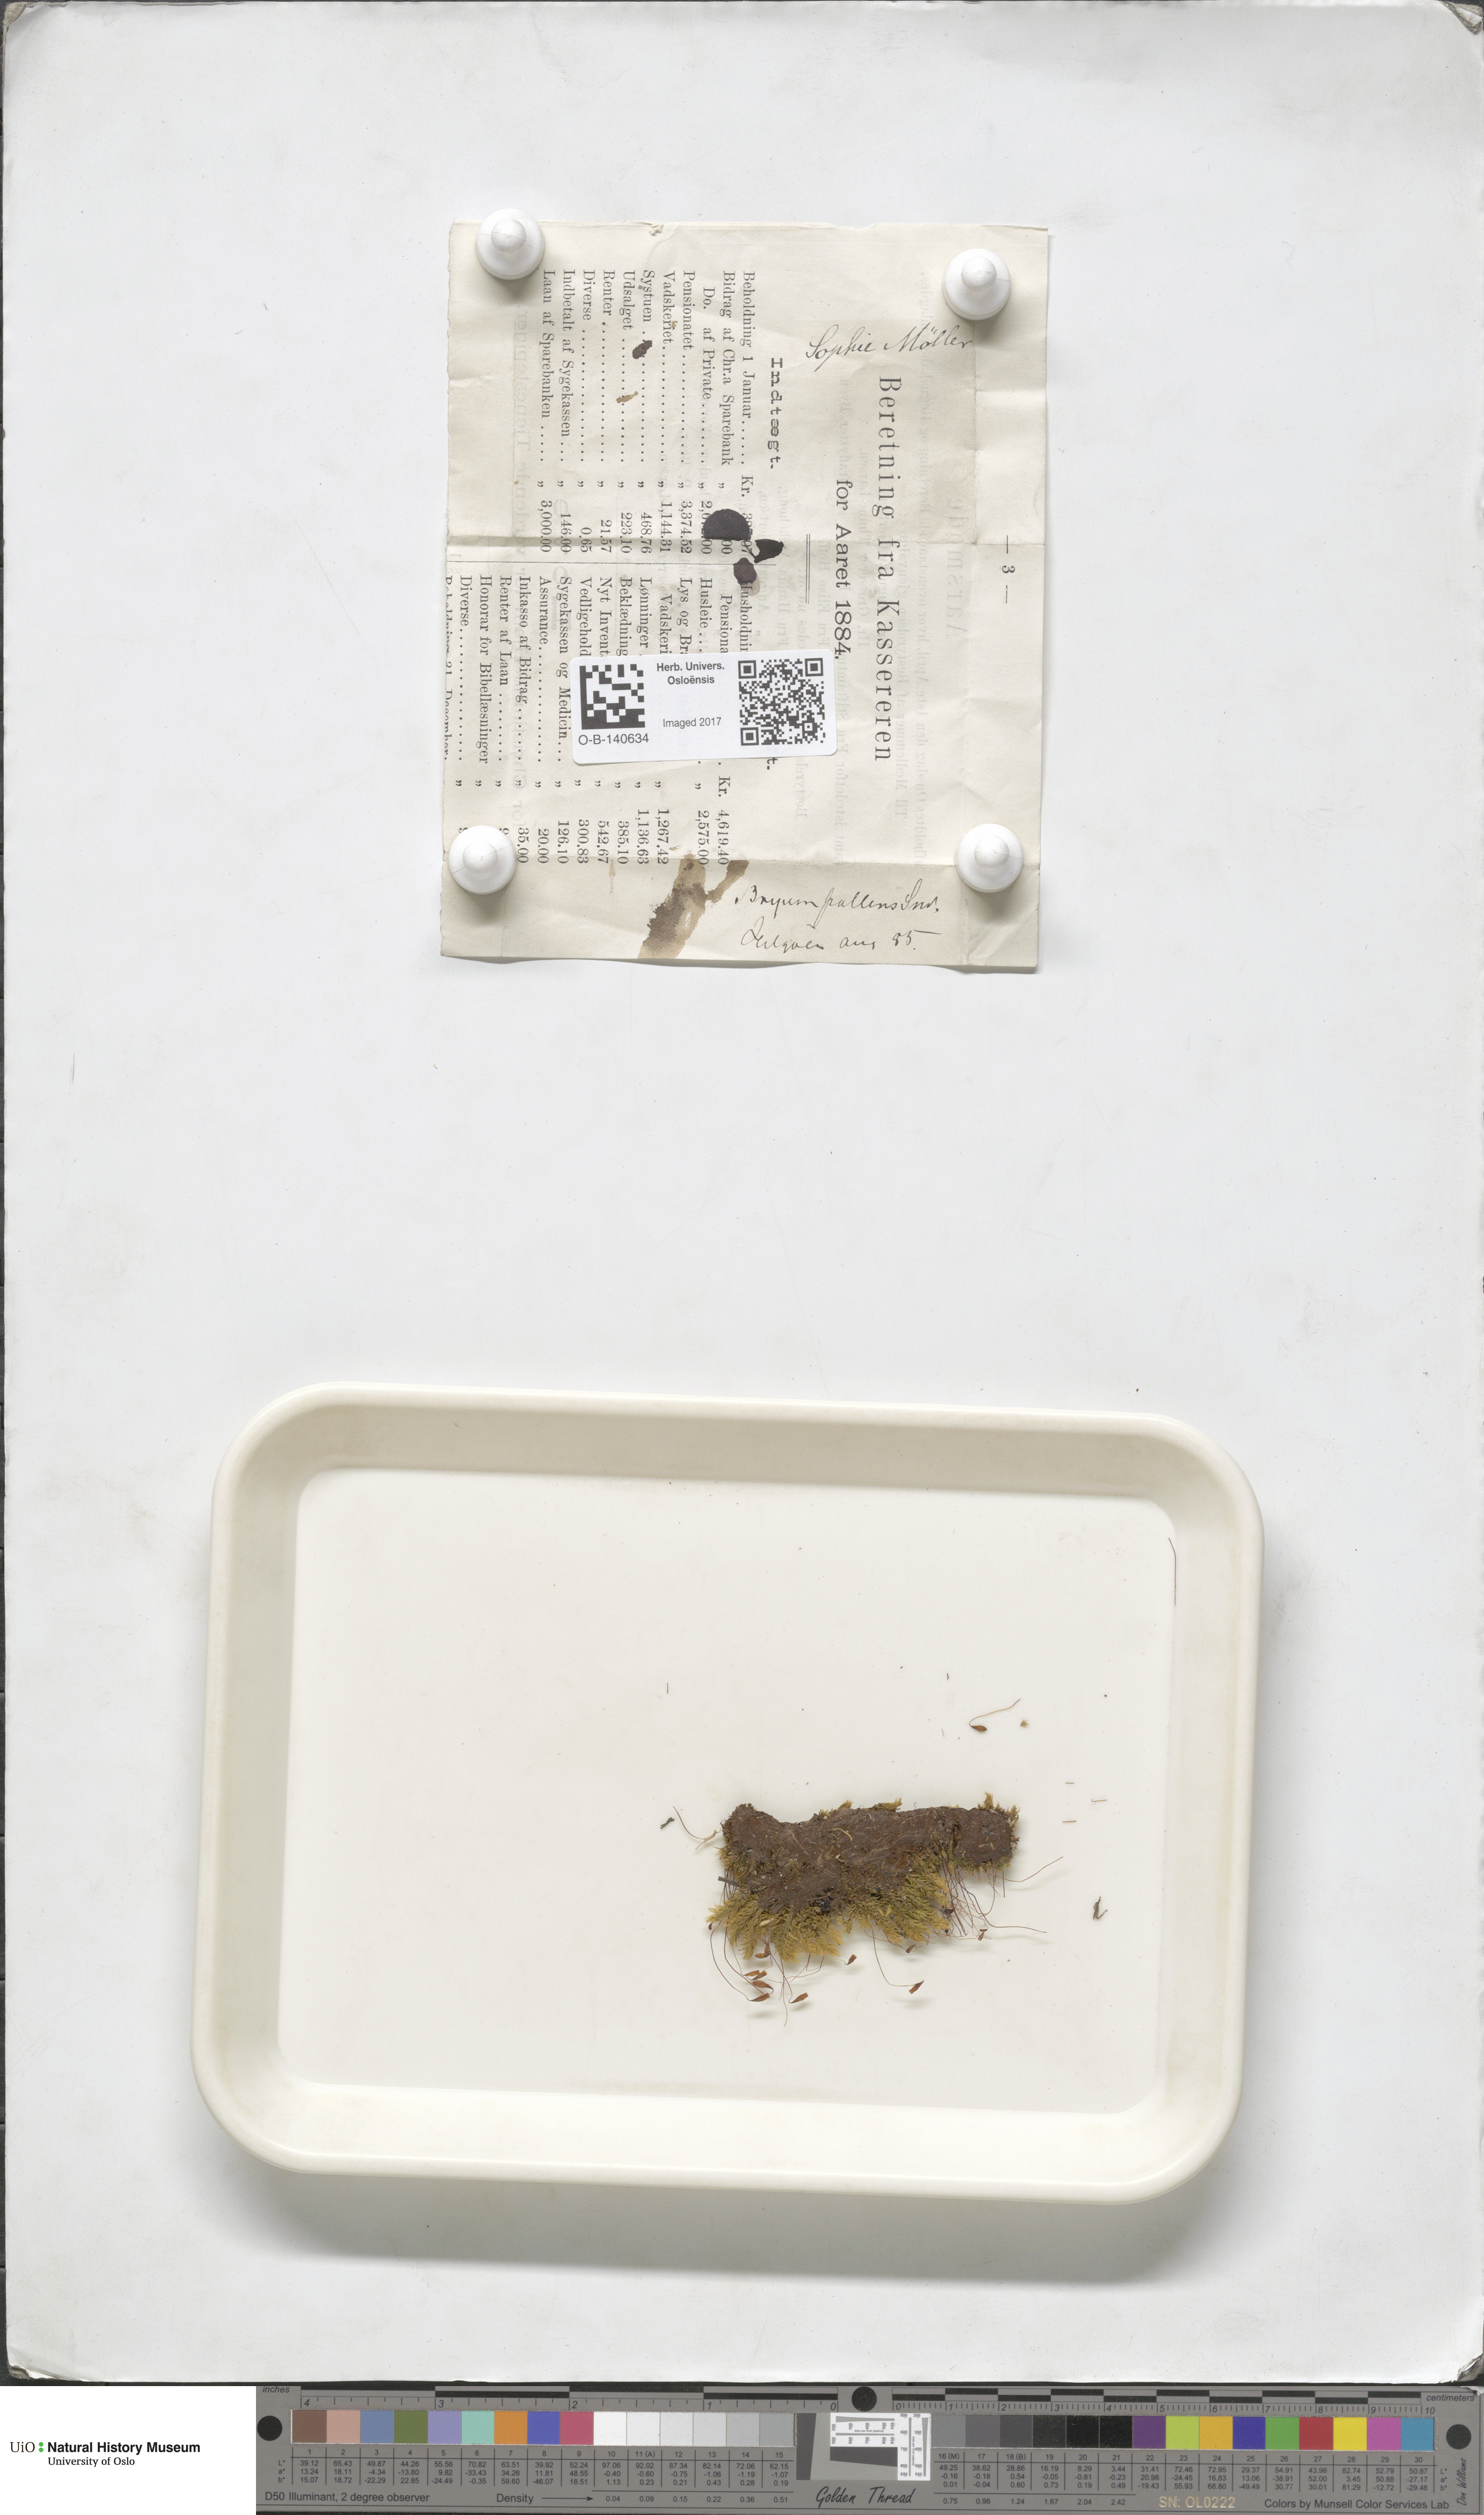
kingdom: Plantae
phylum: Bryophyta
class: Bryopsida
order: Bryales
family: Bryaceae
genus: Ptychostomum
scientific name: Ptychostomum pallens
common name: Pale thread-moss
